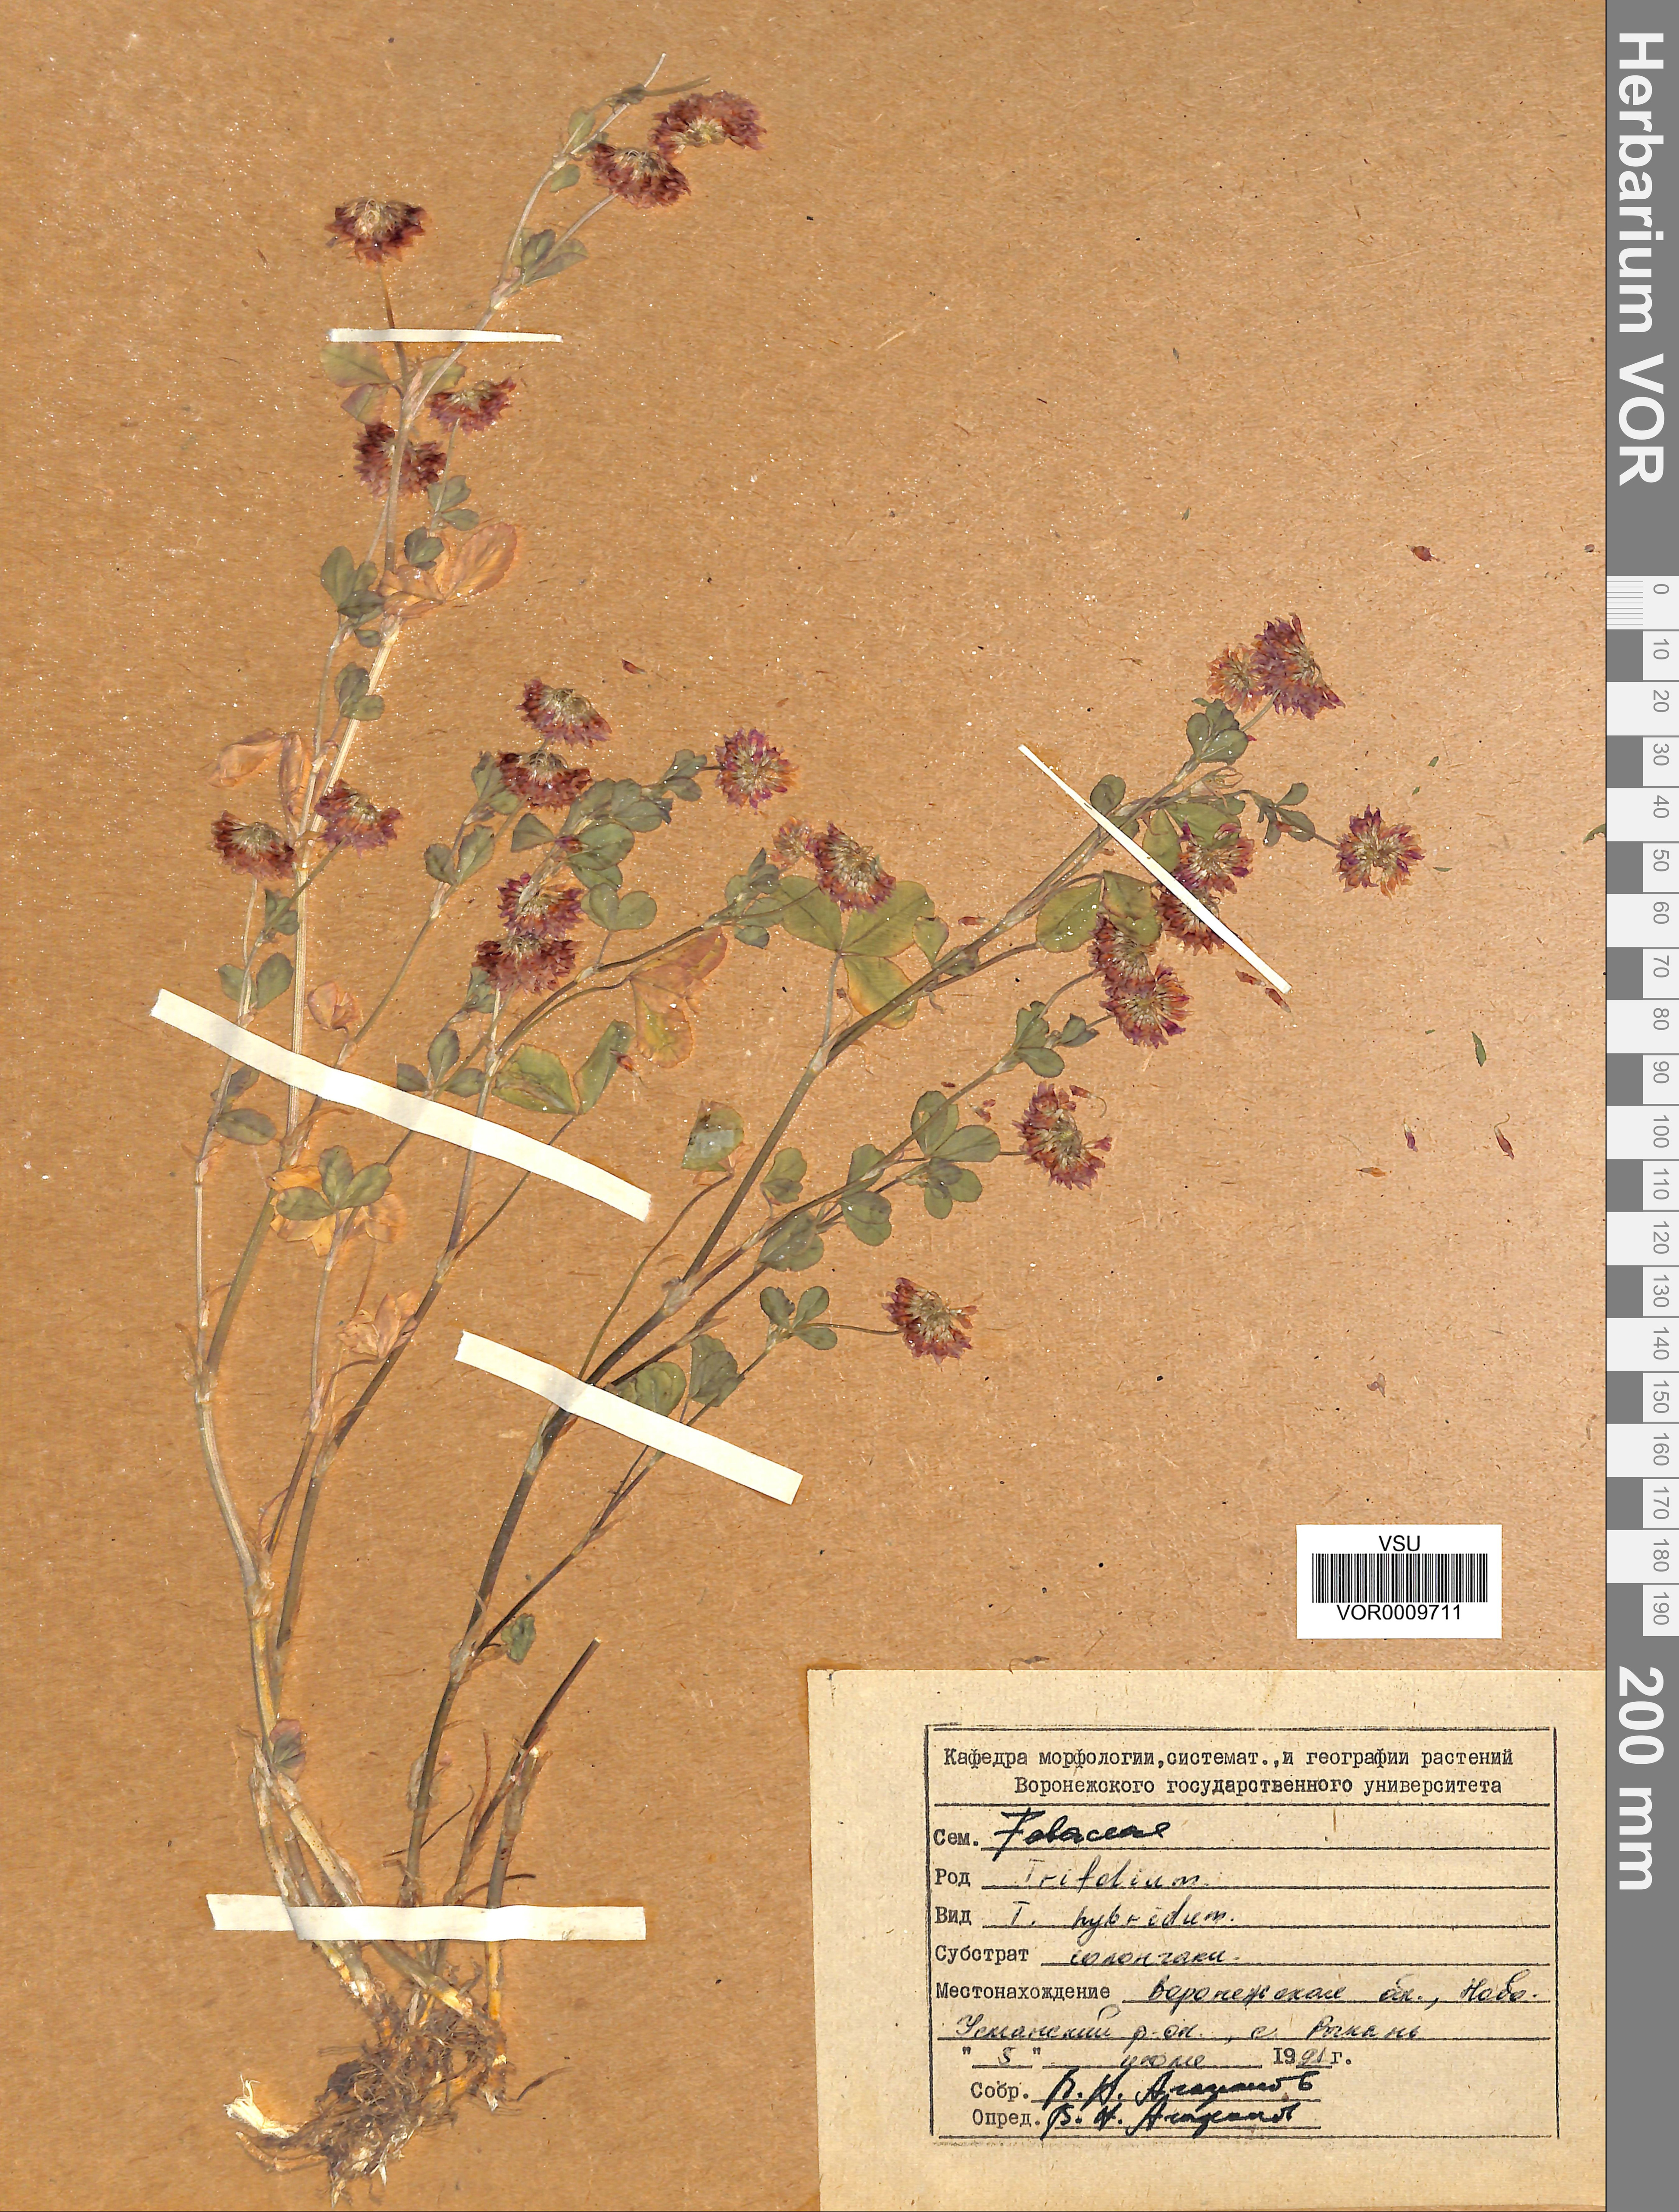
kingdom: Plantae
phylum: Tracheophyta
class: Magnoliopsida
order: Fabales
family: Fabaceae
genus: Trifolium
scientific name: Trifolium hybridum
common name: Alsike clover
